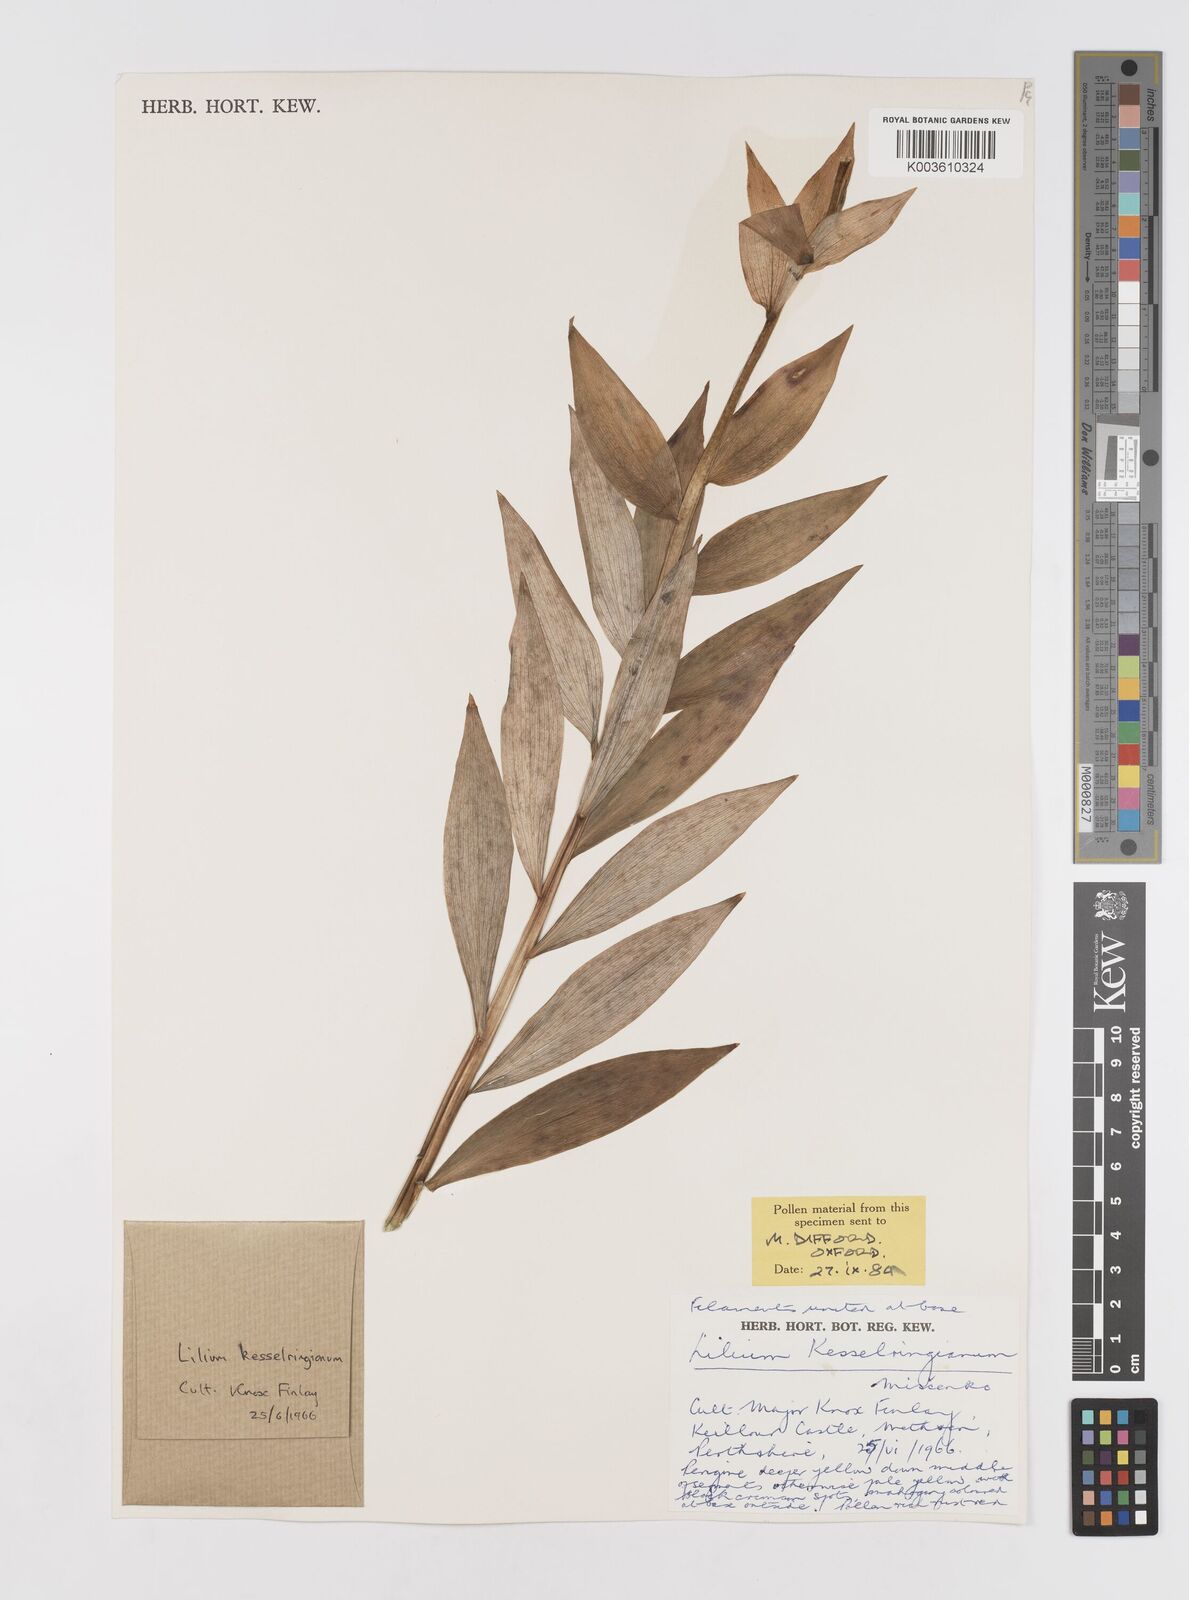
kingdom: Plantae
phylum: Tracheophyta
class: Liliopsida
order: Liliales
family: Liliaceae
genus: Lilium
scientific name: Lilium kesselringianum
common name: Kesselring lily
